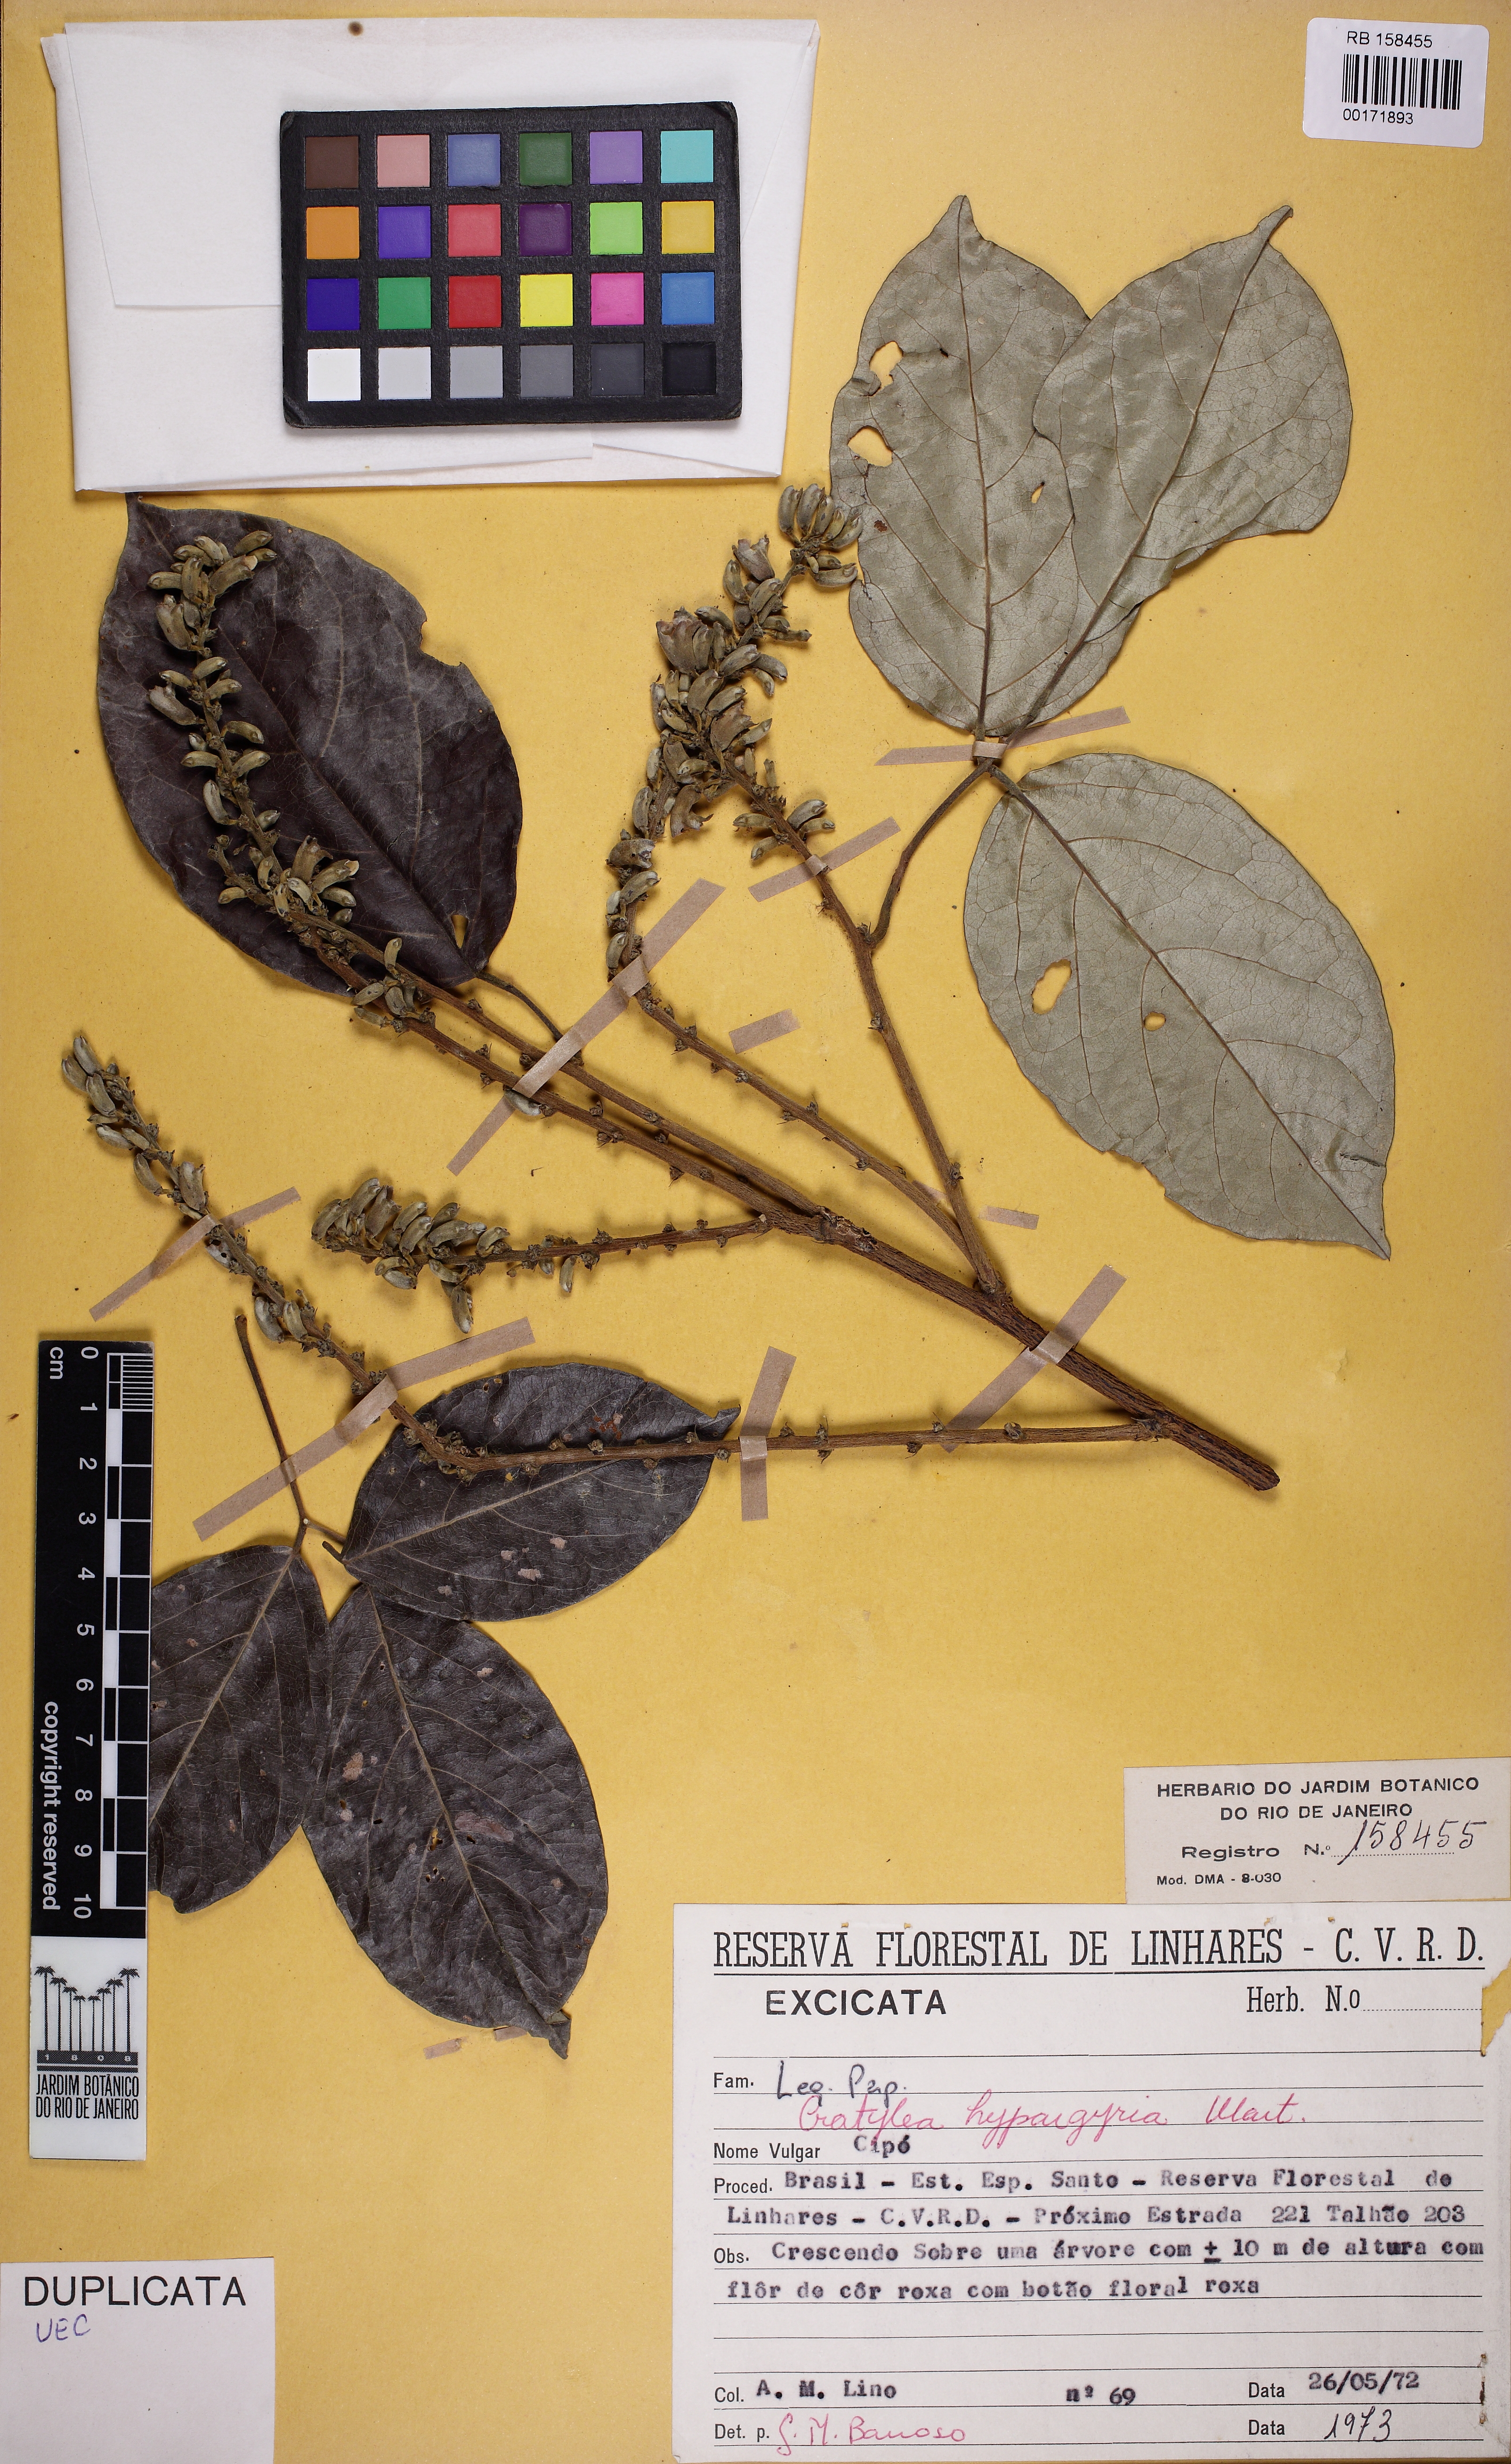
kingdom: Plantae
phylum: Tracheophyta
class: Magnoliopsida
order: Fabales
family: Fabaceae
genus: Cratylia
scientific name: Cratylia hypargyrea
